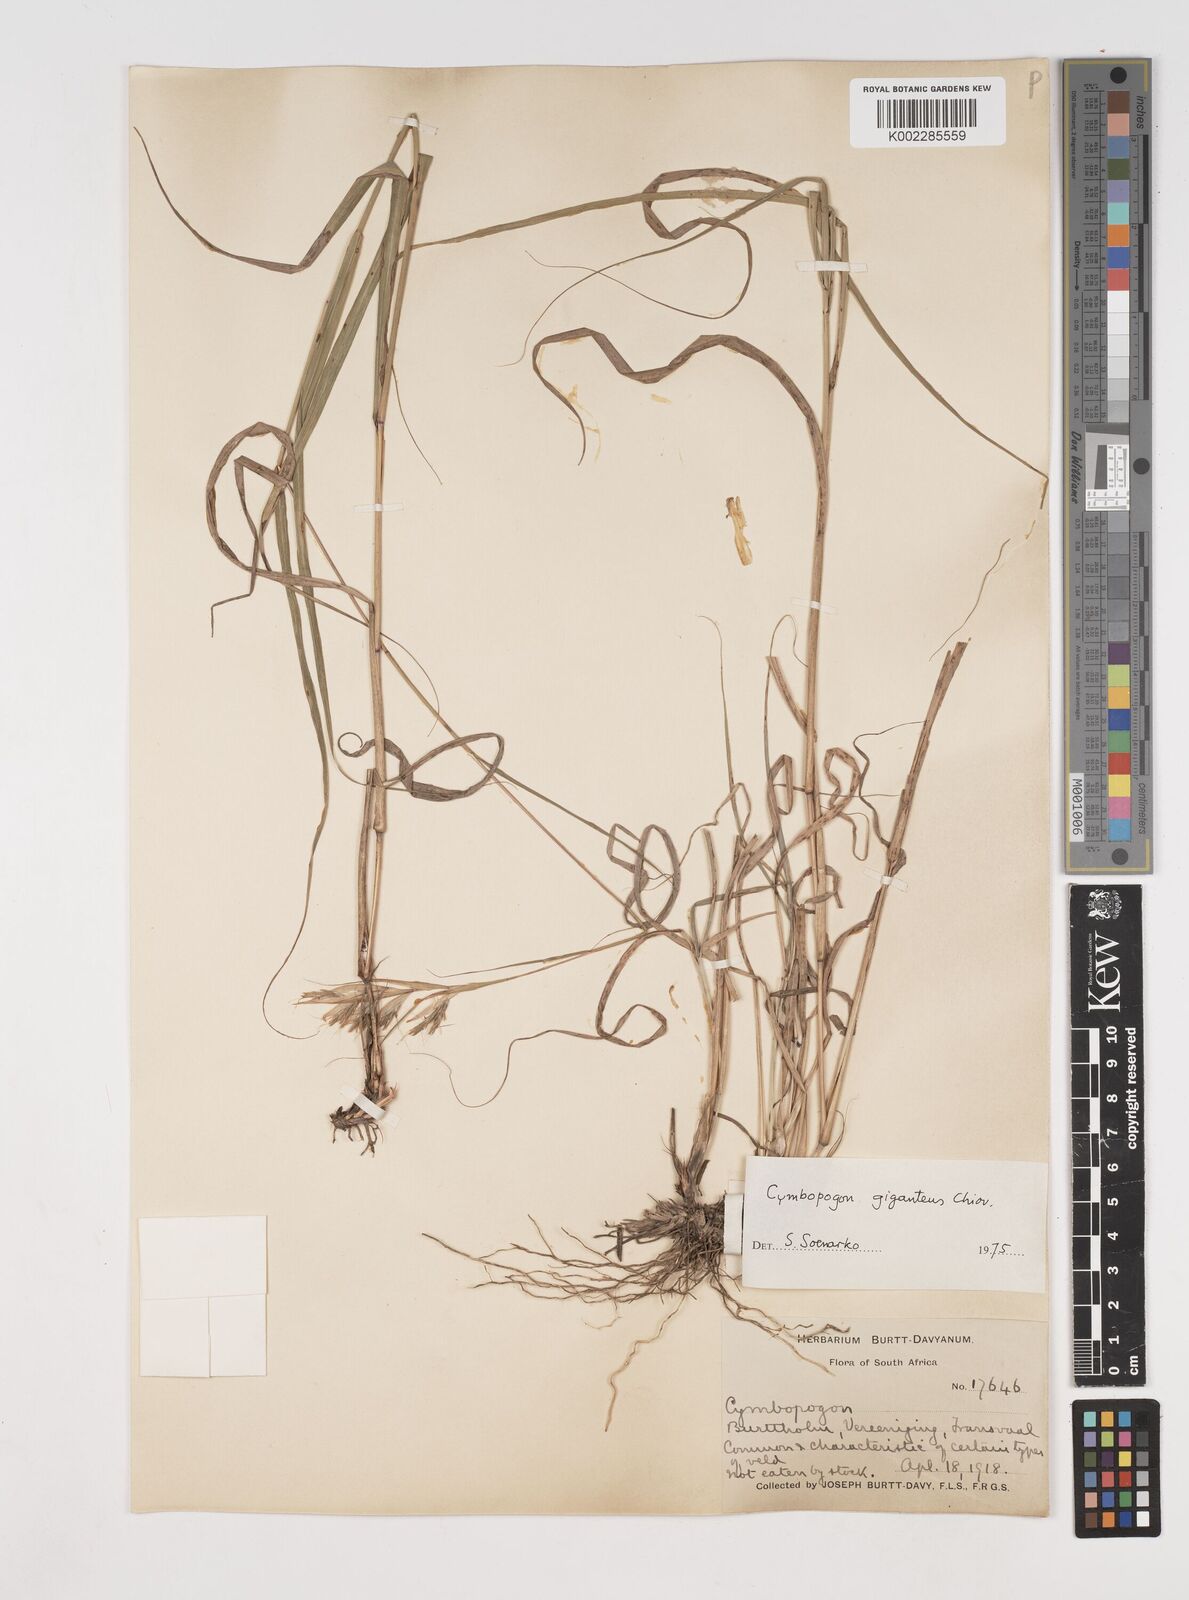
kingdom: Plantae
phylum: Tracheophyta
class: Liliopsida
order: Poales
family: Poaceae
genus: Cymbopogon
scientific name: Cymbopogon caesius
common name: Kachi grass
